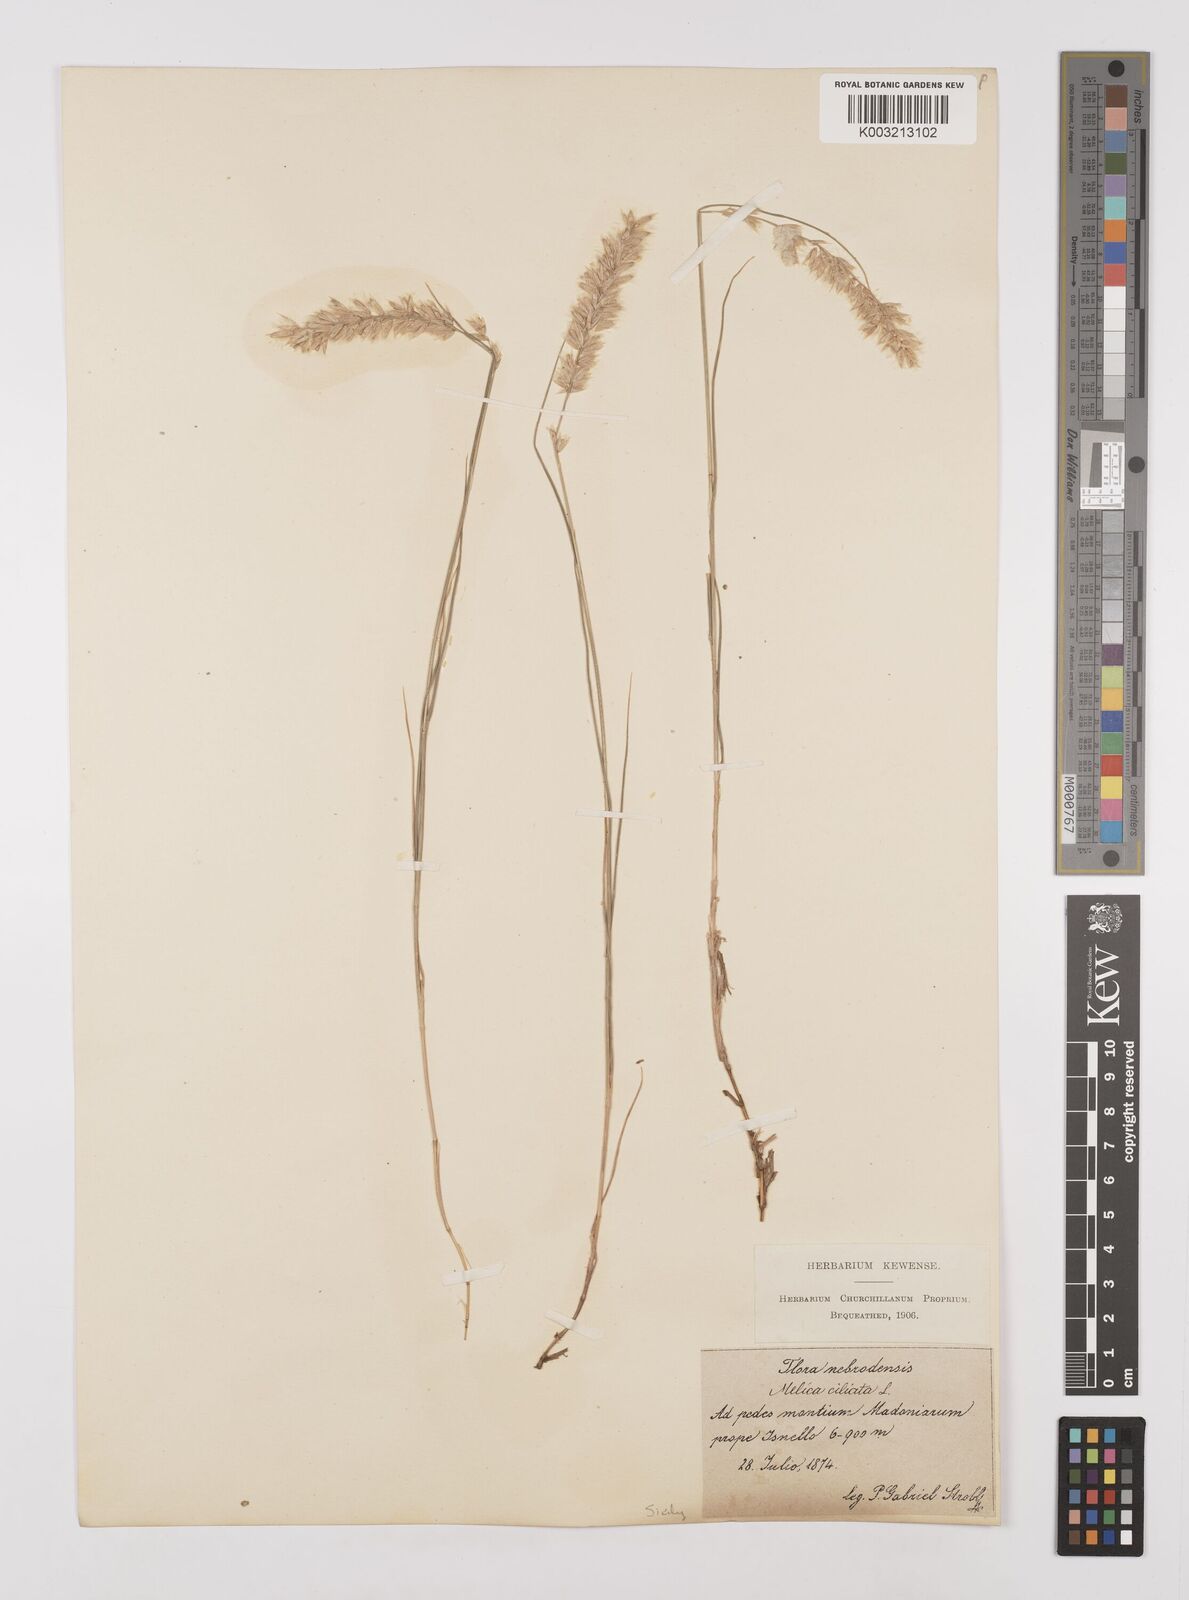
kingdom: Plantae
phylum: Tracheophyta
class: Liliopsida
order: Poales
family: Poaceae
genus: Melica
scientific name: Melica ciliata
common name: Hairy melicgrass
